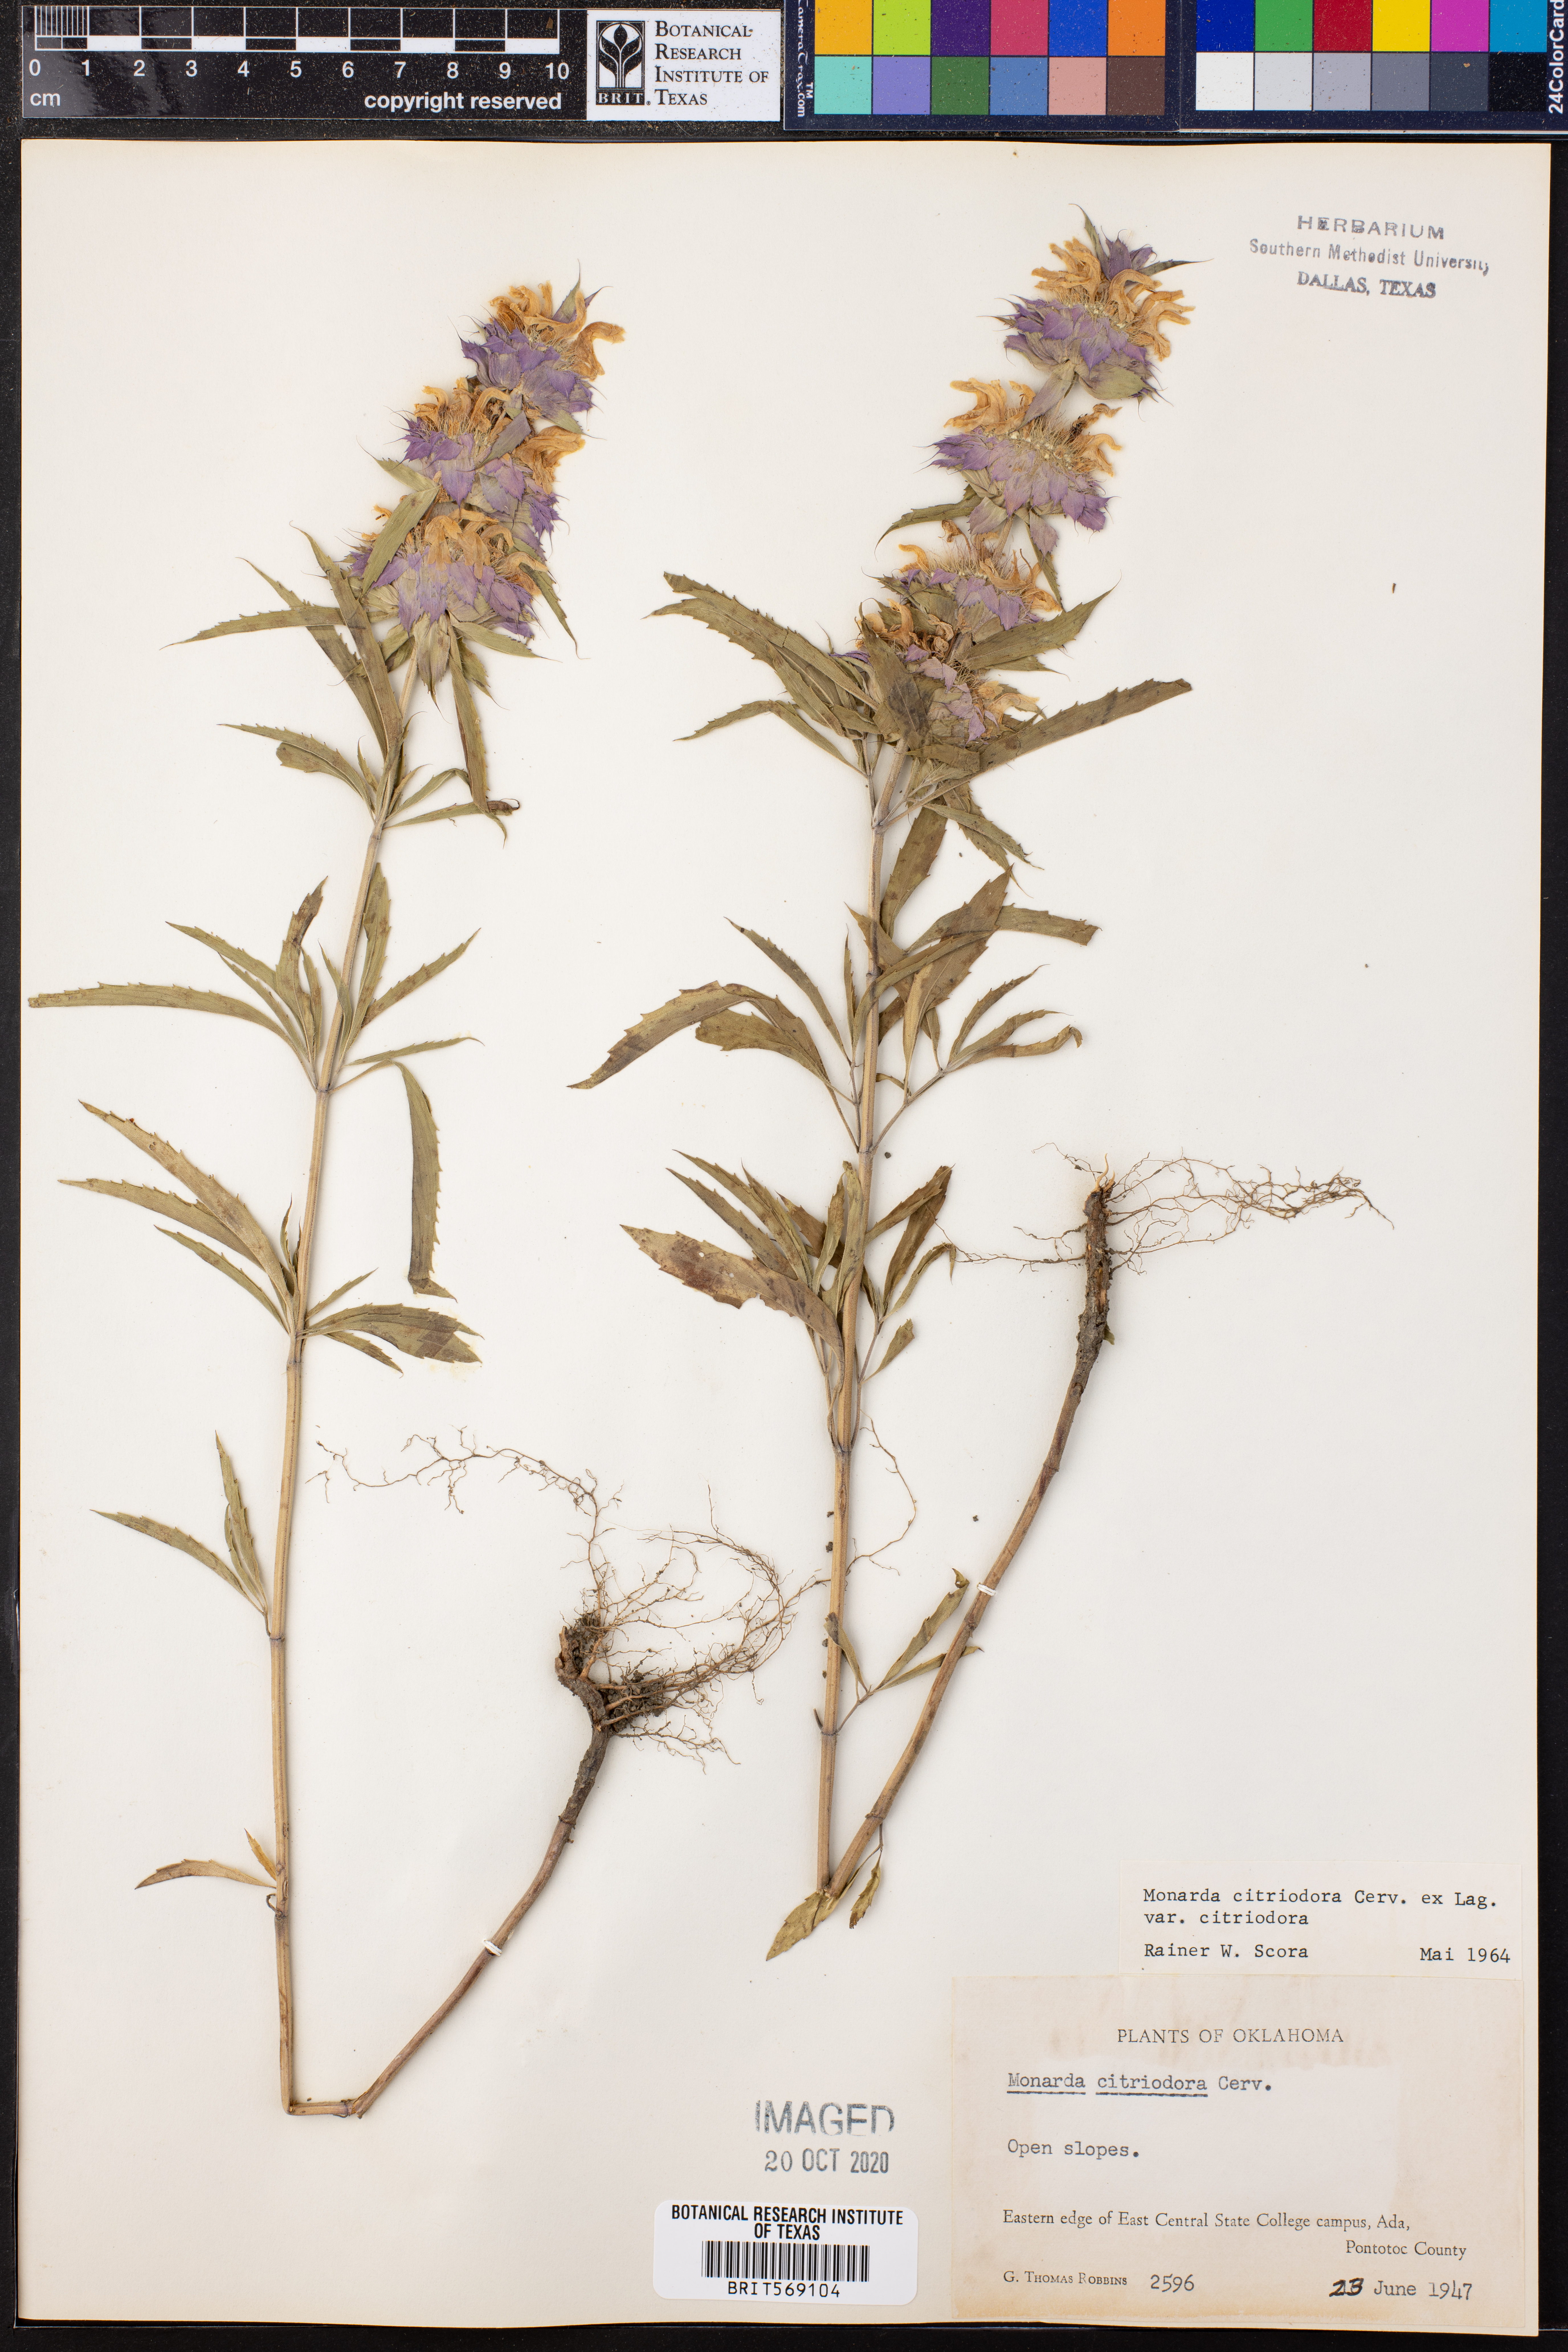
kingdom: Plantae
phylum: Tracheophyta
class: Magnoliopsida
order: Lamiales
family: Lamiaceae
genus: Monarda
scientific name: Monarda citriodora
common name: Lemon beebalm
